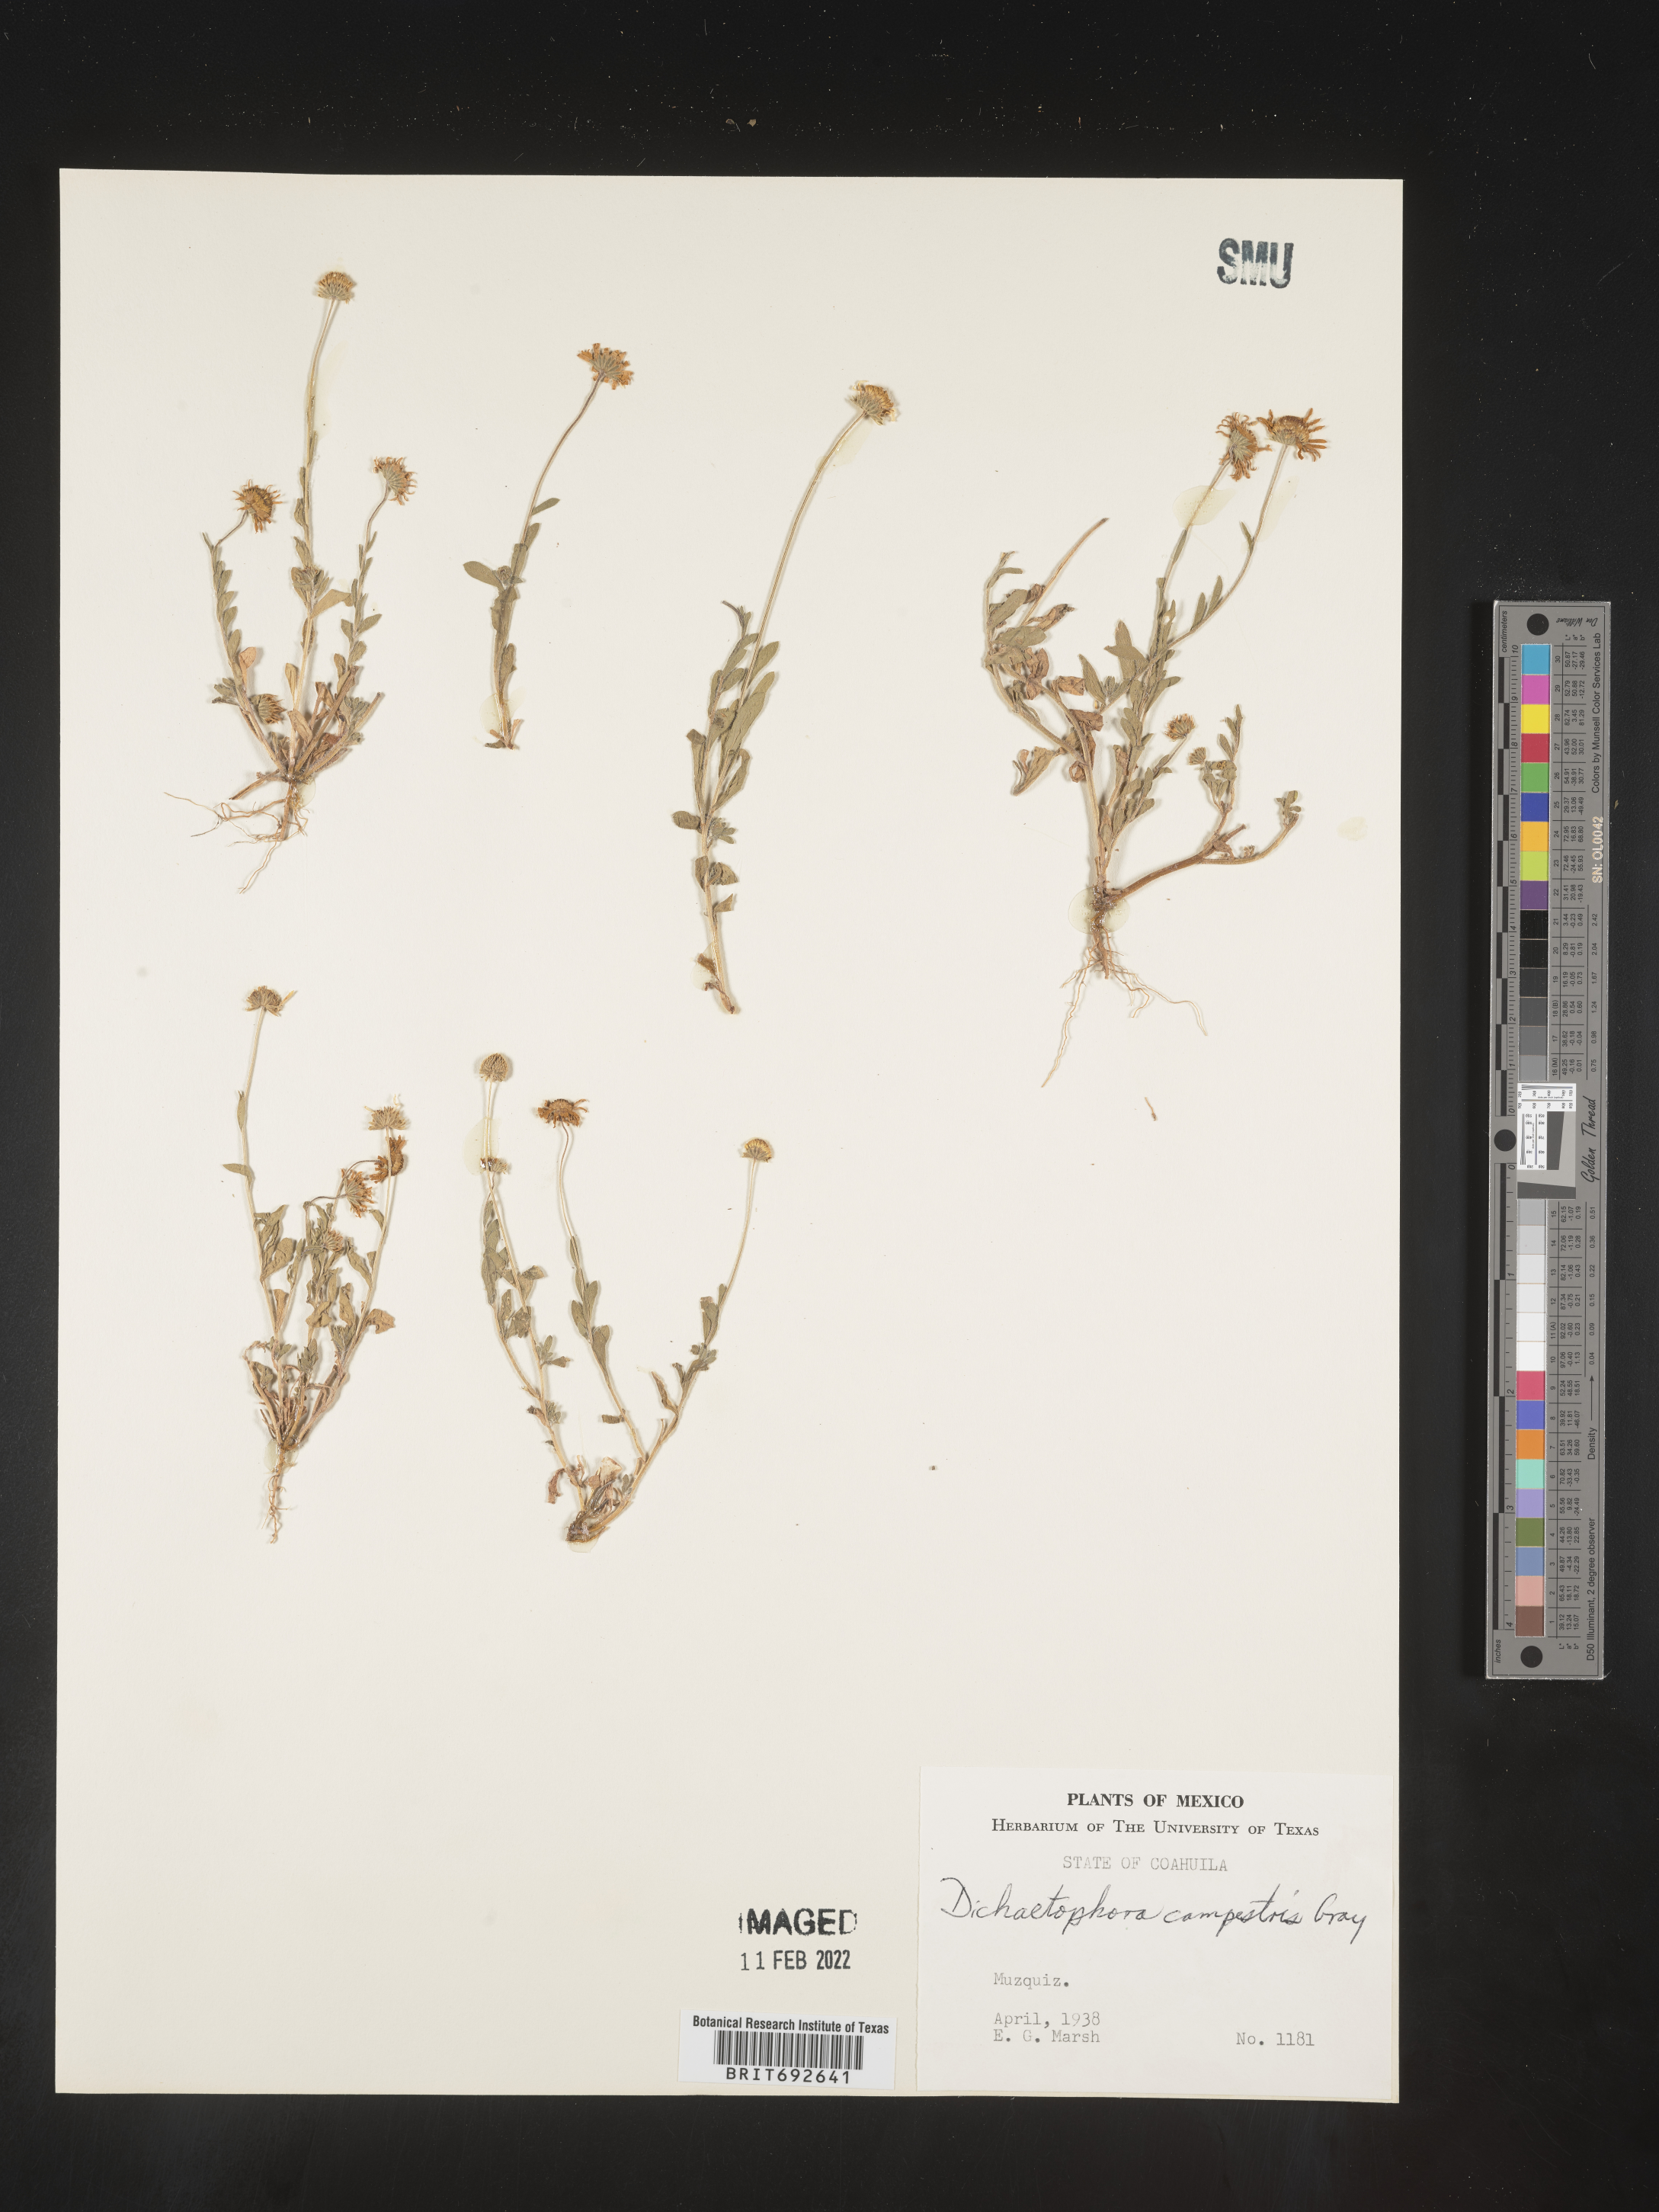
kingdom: Plantae
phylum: Tracheophyta
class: Magnoliopsida
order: Asterales
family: Asteraceae
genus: Dichaetophora
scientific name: Dichaetophora
